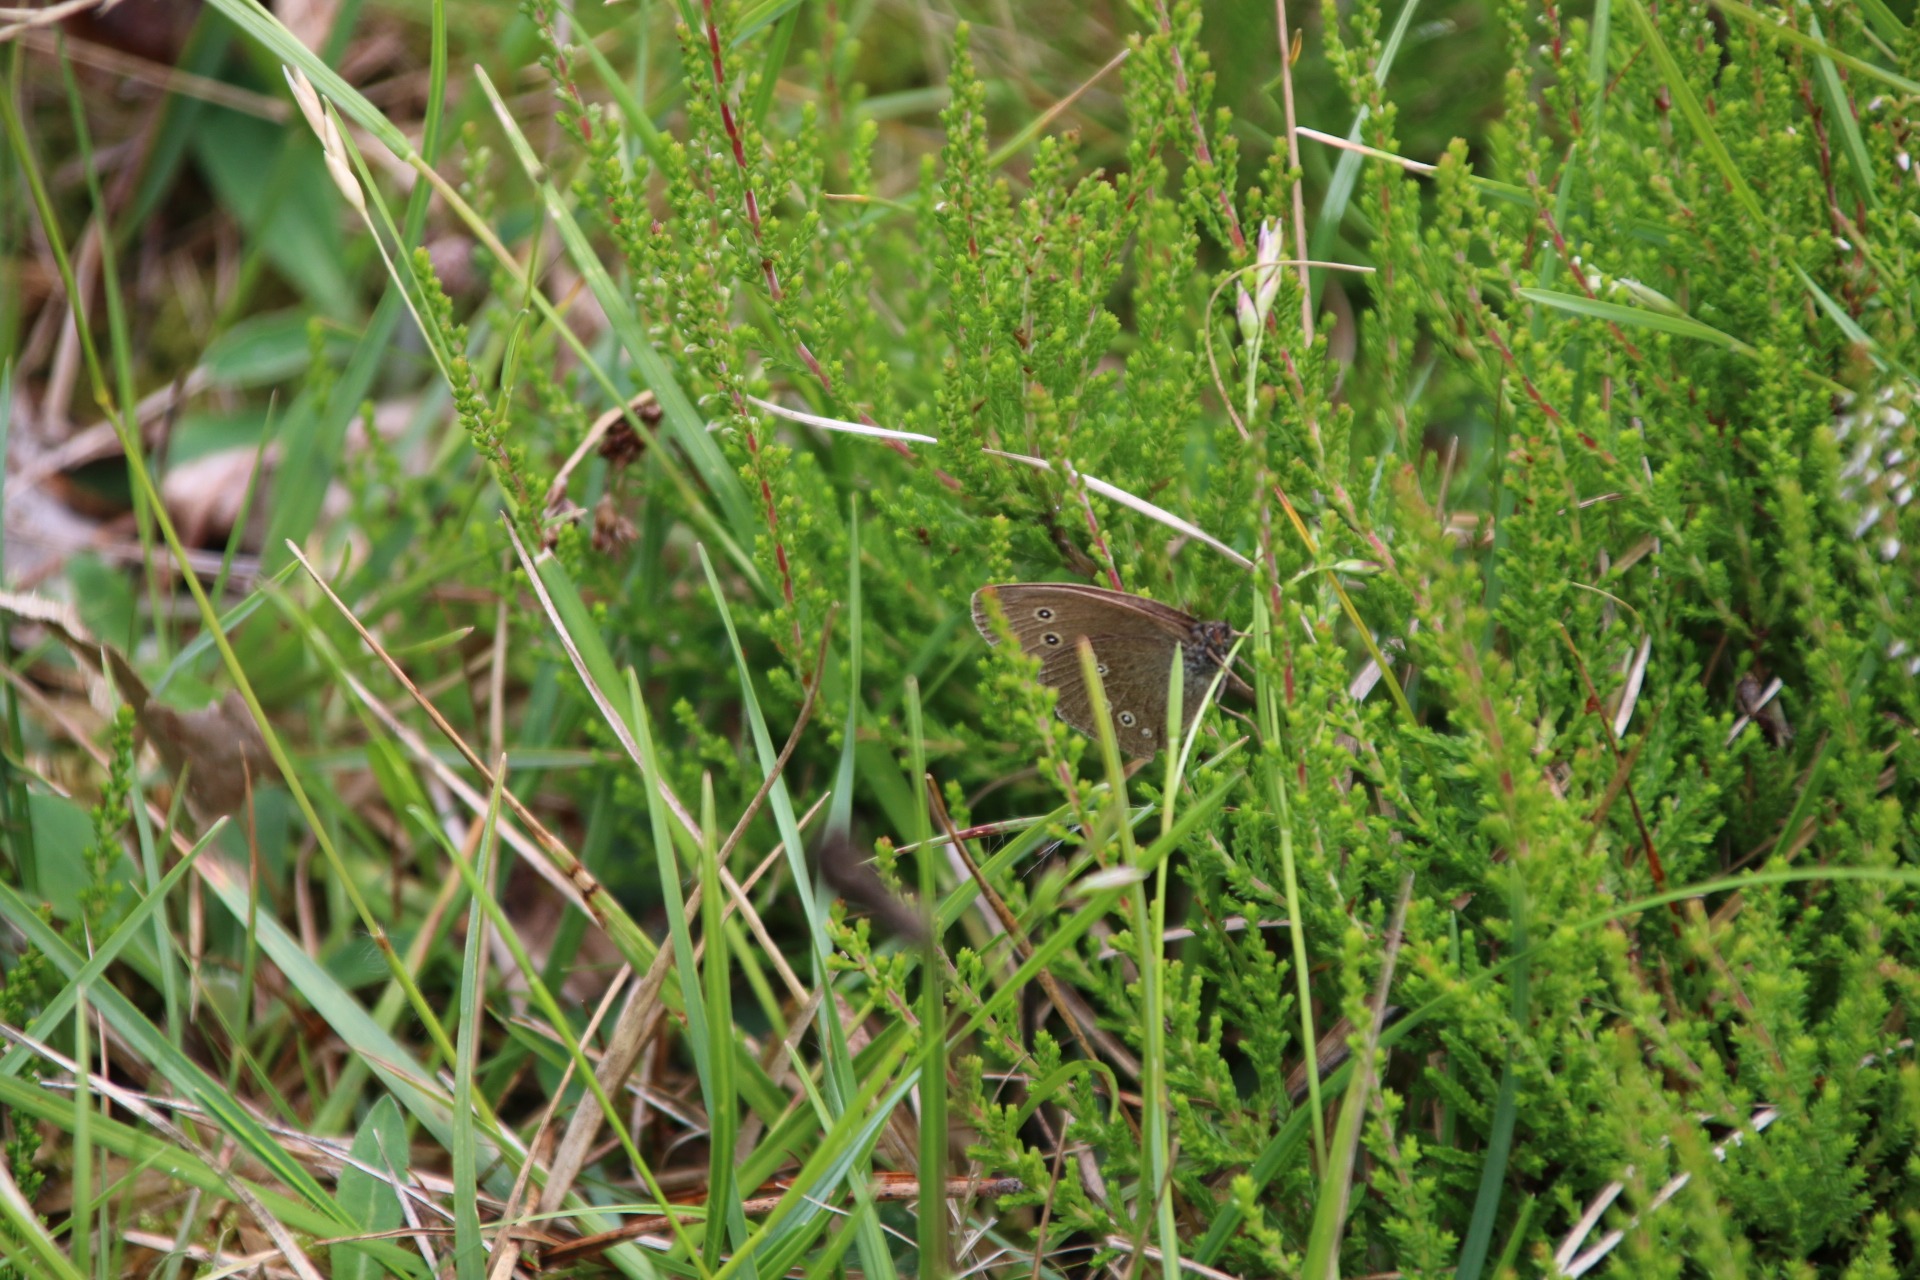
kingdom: Animalia
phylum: Arthropoda
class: Insecta
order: Lepidoptera
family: Nymphalidae
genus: Aphantopus
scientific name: Aphantopus hyperantus
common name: Engrandøje
